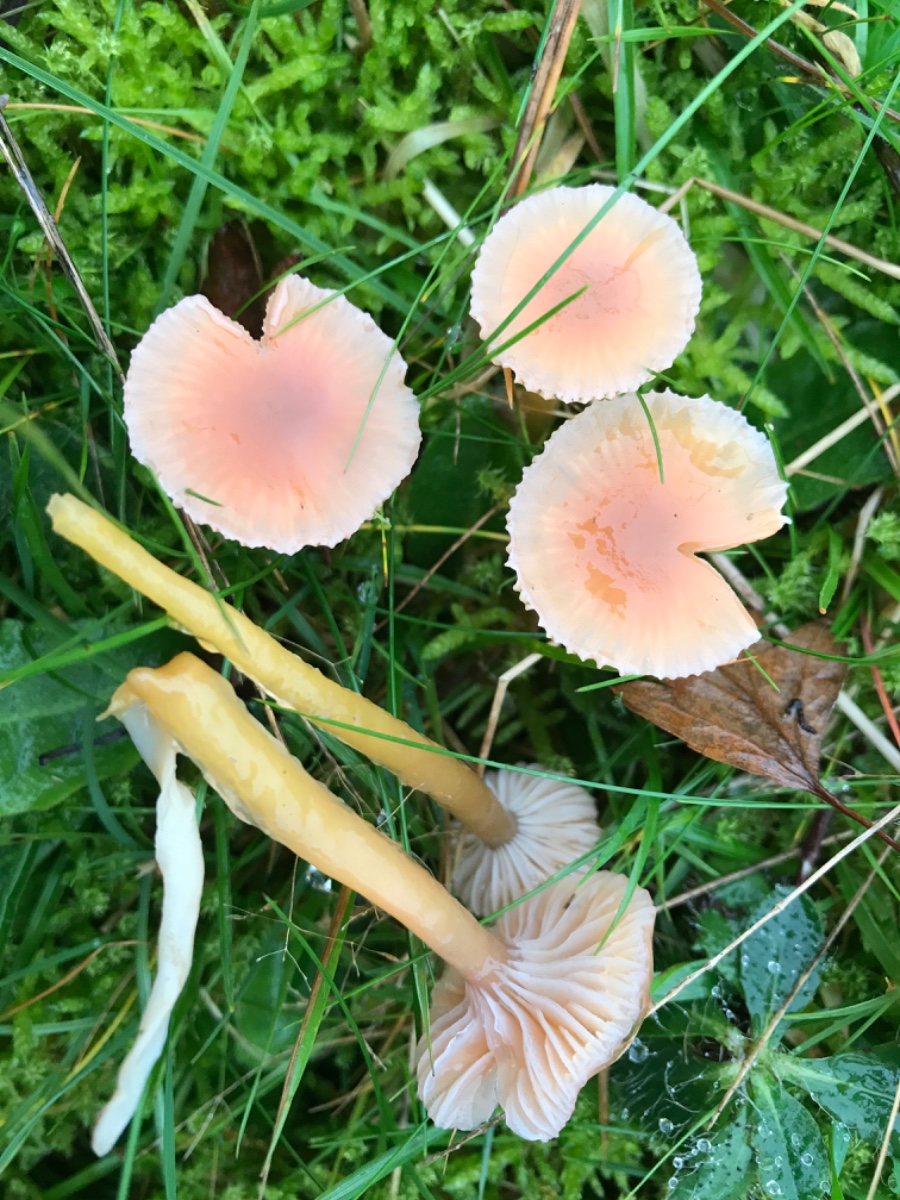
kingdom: Fungi
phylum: Basidiomycota
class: Agaricomycetes
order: Agaricales
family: Hygrophoraceae
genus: Gliophorus
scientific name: Gliophorus laetus
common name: brusk-vokshat
